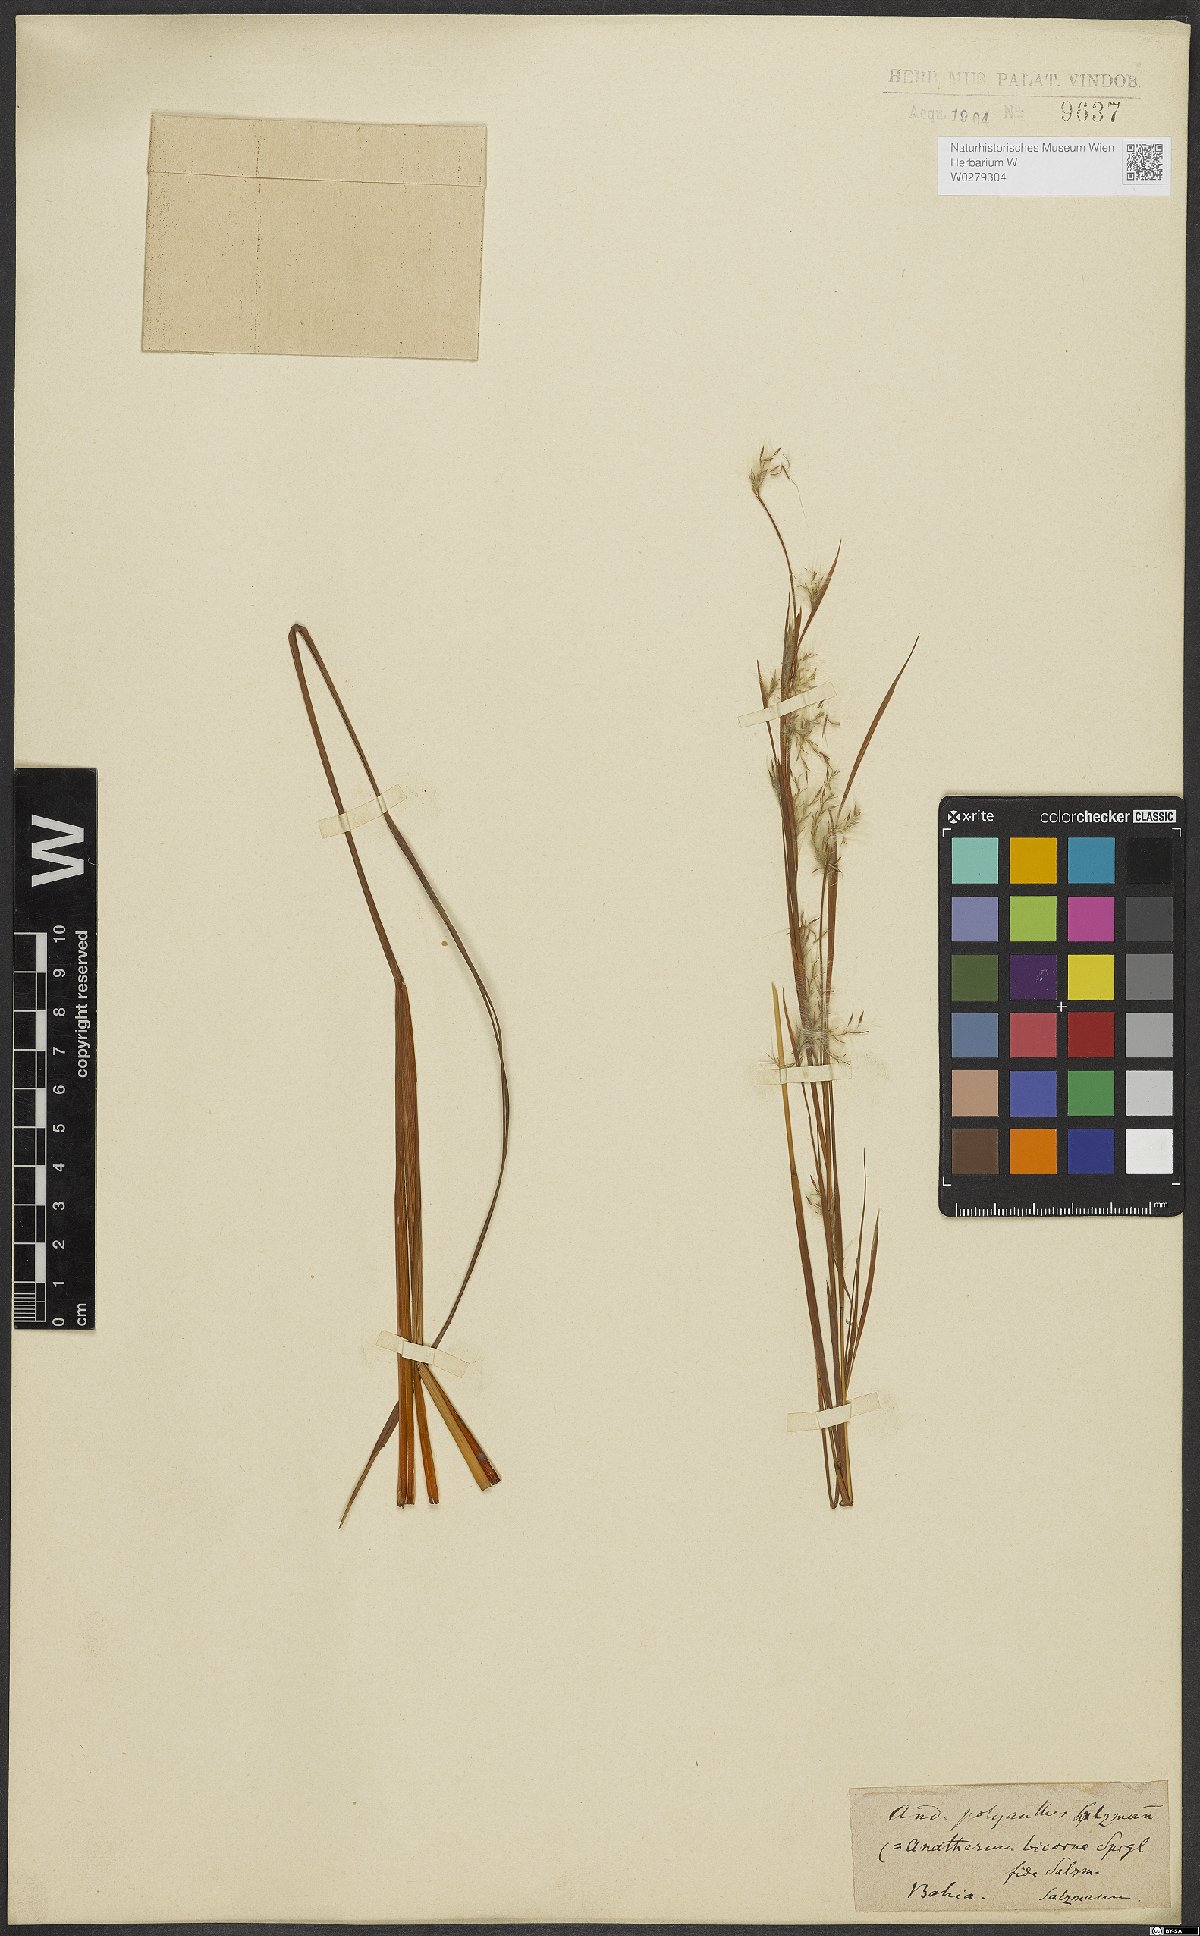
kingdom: Plantae
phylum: Tracheophyta
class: Liliopsida
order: Poales
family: Poaceae
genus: Andropogon
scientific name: Andropogon bicornis
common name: West indian foxtail grass
